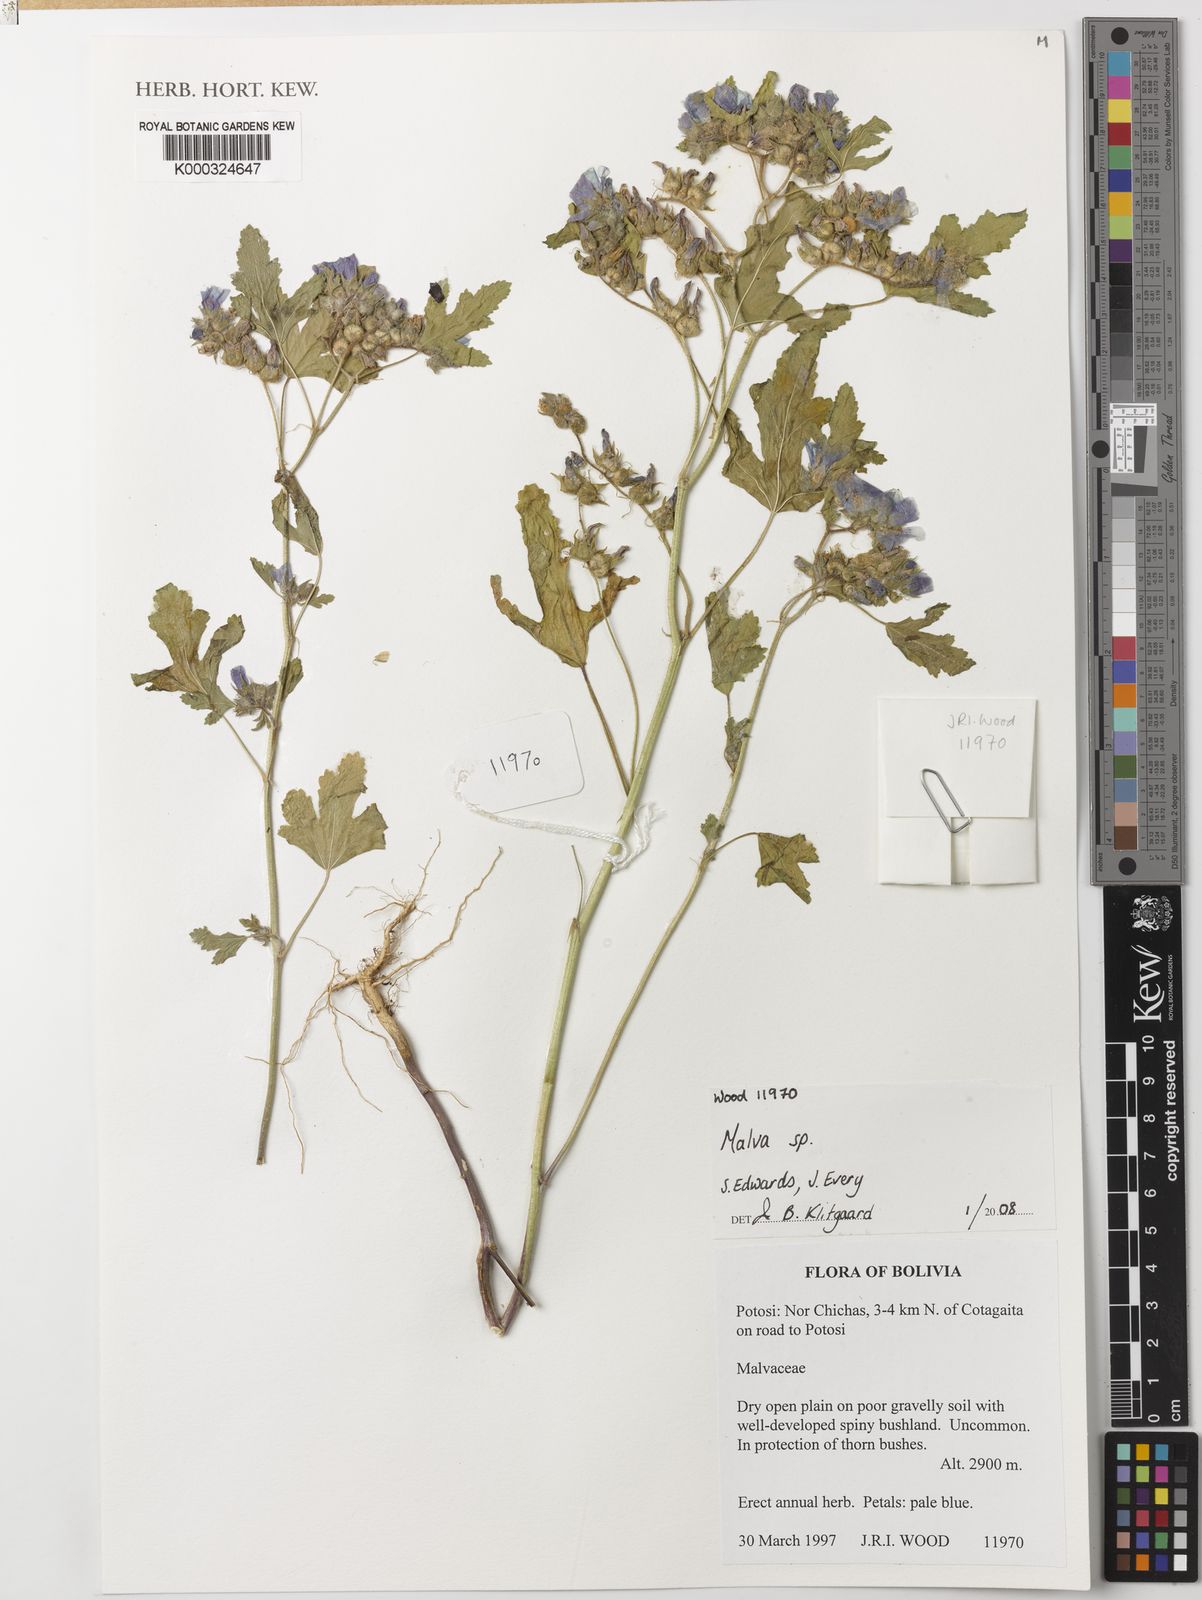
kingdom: Plantae
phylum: Tracheophyta
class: Magnoliopsida
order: Malvales
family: Malvaceae
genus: Malva
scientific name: Malva
